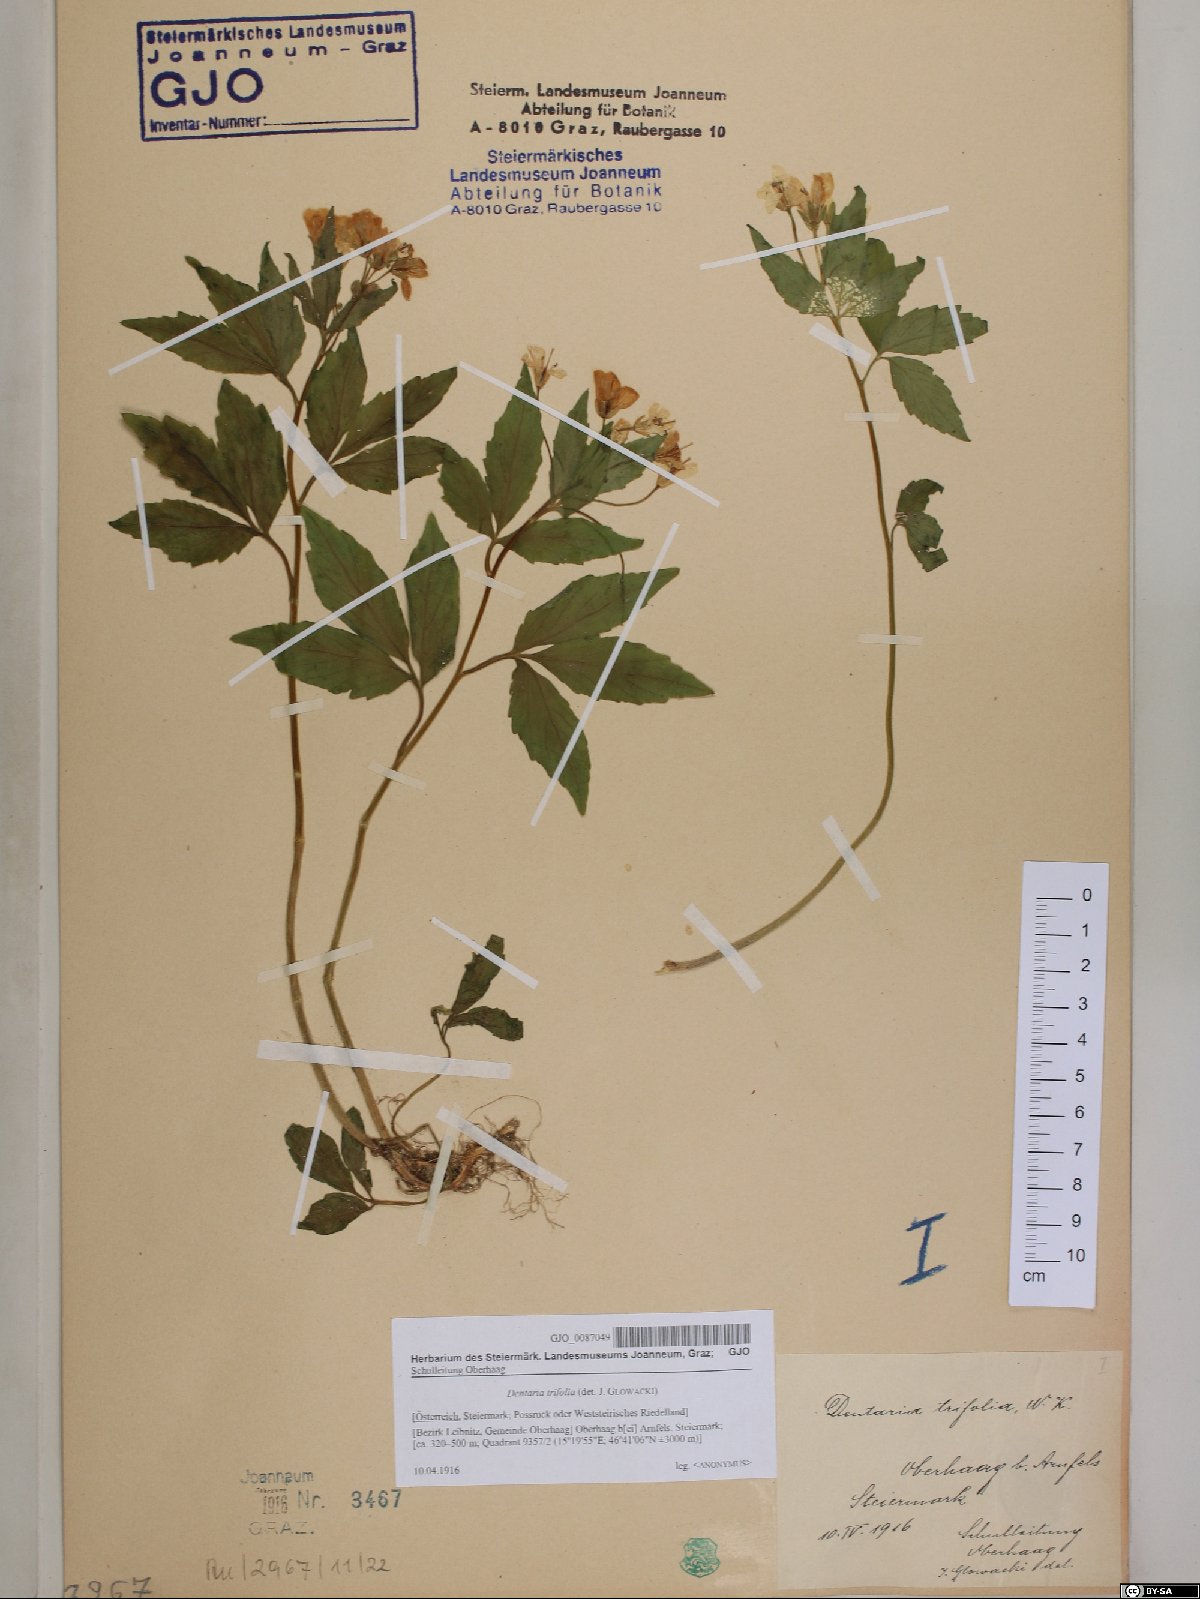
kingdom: Plantae
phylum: Tracheophyta
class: Magnoliopsida
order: Brassicales
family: Brassicaceae
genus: Cardamine
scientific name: Cardamine waldsteinii
